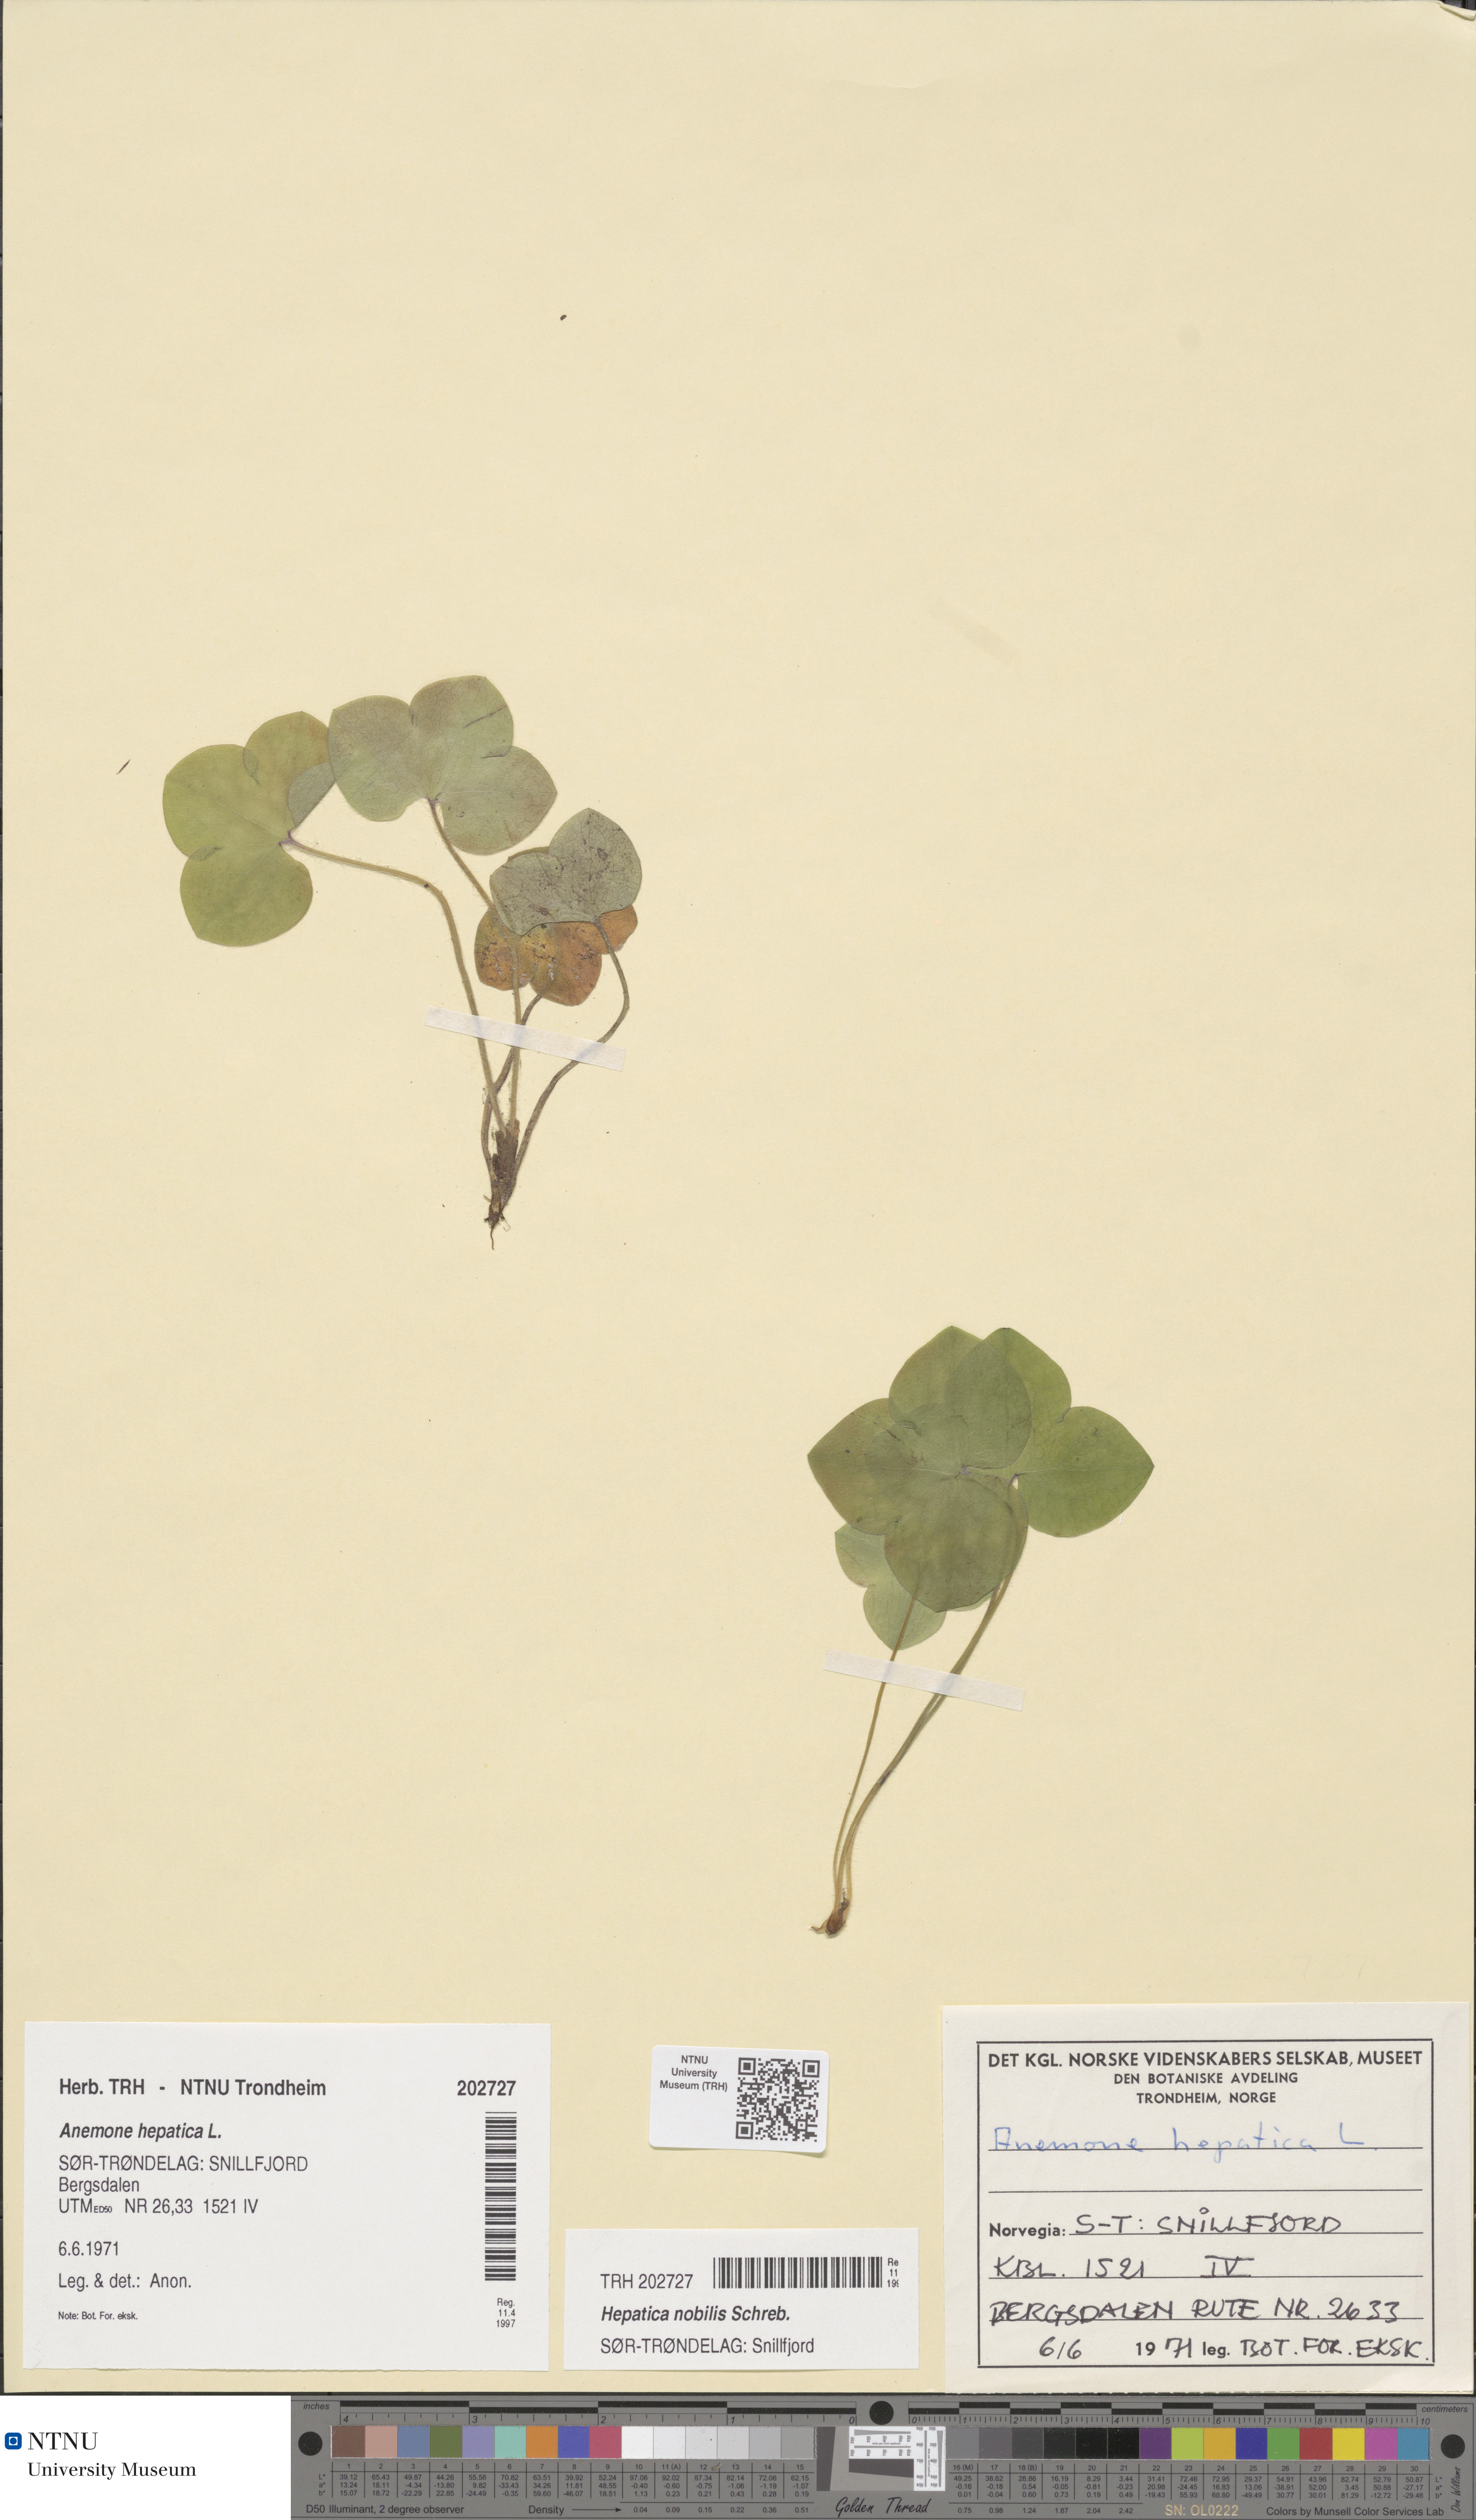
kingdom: Plantae
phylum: Tracheophyta
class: Magnoliopsida
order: Ranunculales
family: Ranunculaceae
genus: Hepatica
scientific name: Hepatica nobilis
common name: Liverleaf
